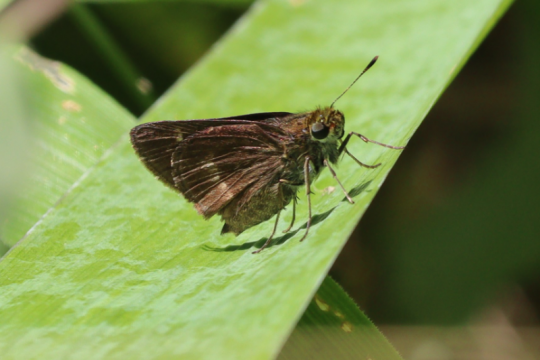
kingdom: Animalia
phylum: Arthropoda
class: Insecta
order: Lepidoptera
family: Hesperiidae
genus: Polites
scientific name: Polites egeremet
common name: Northern Broken-Dash
